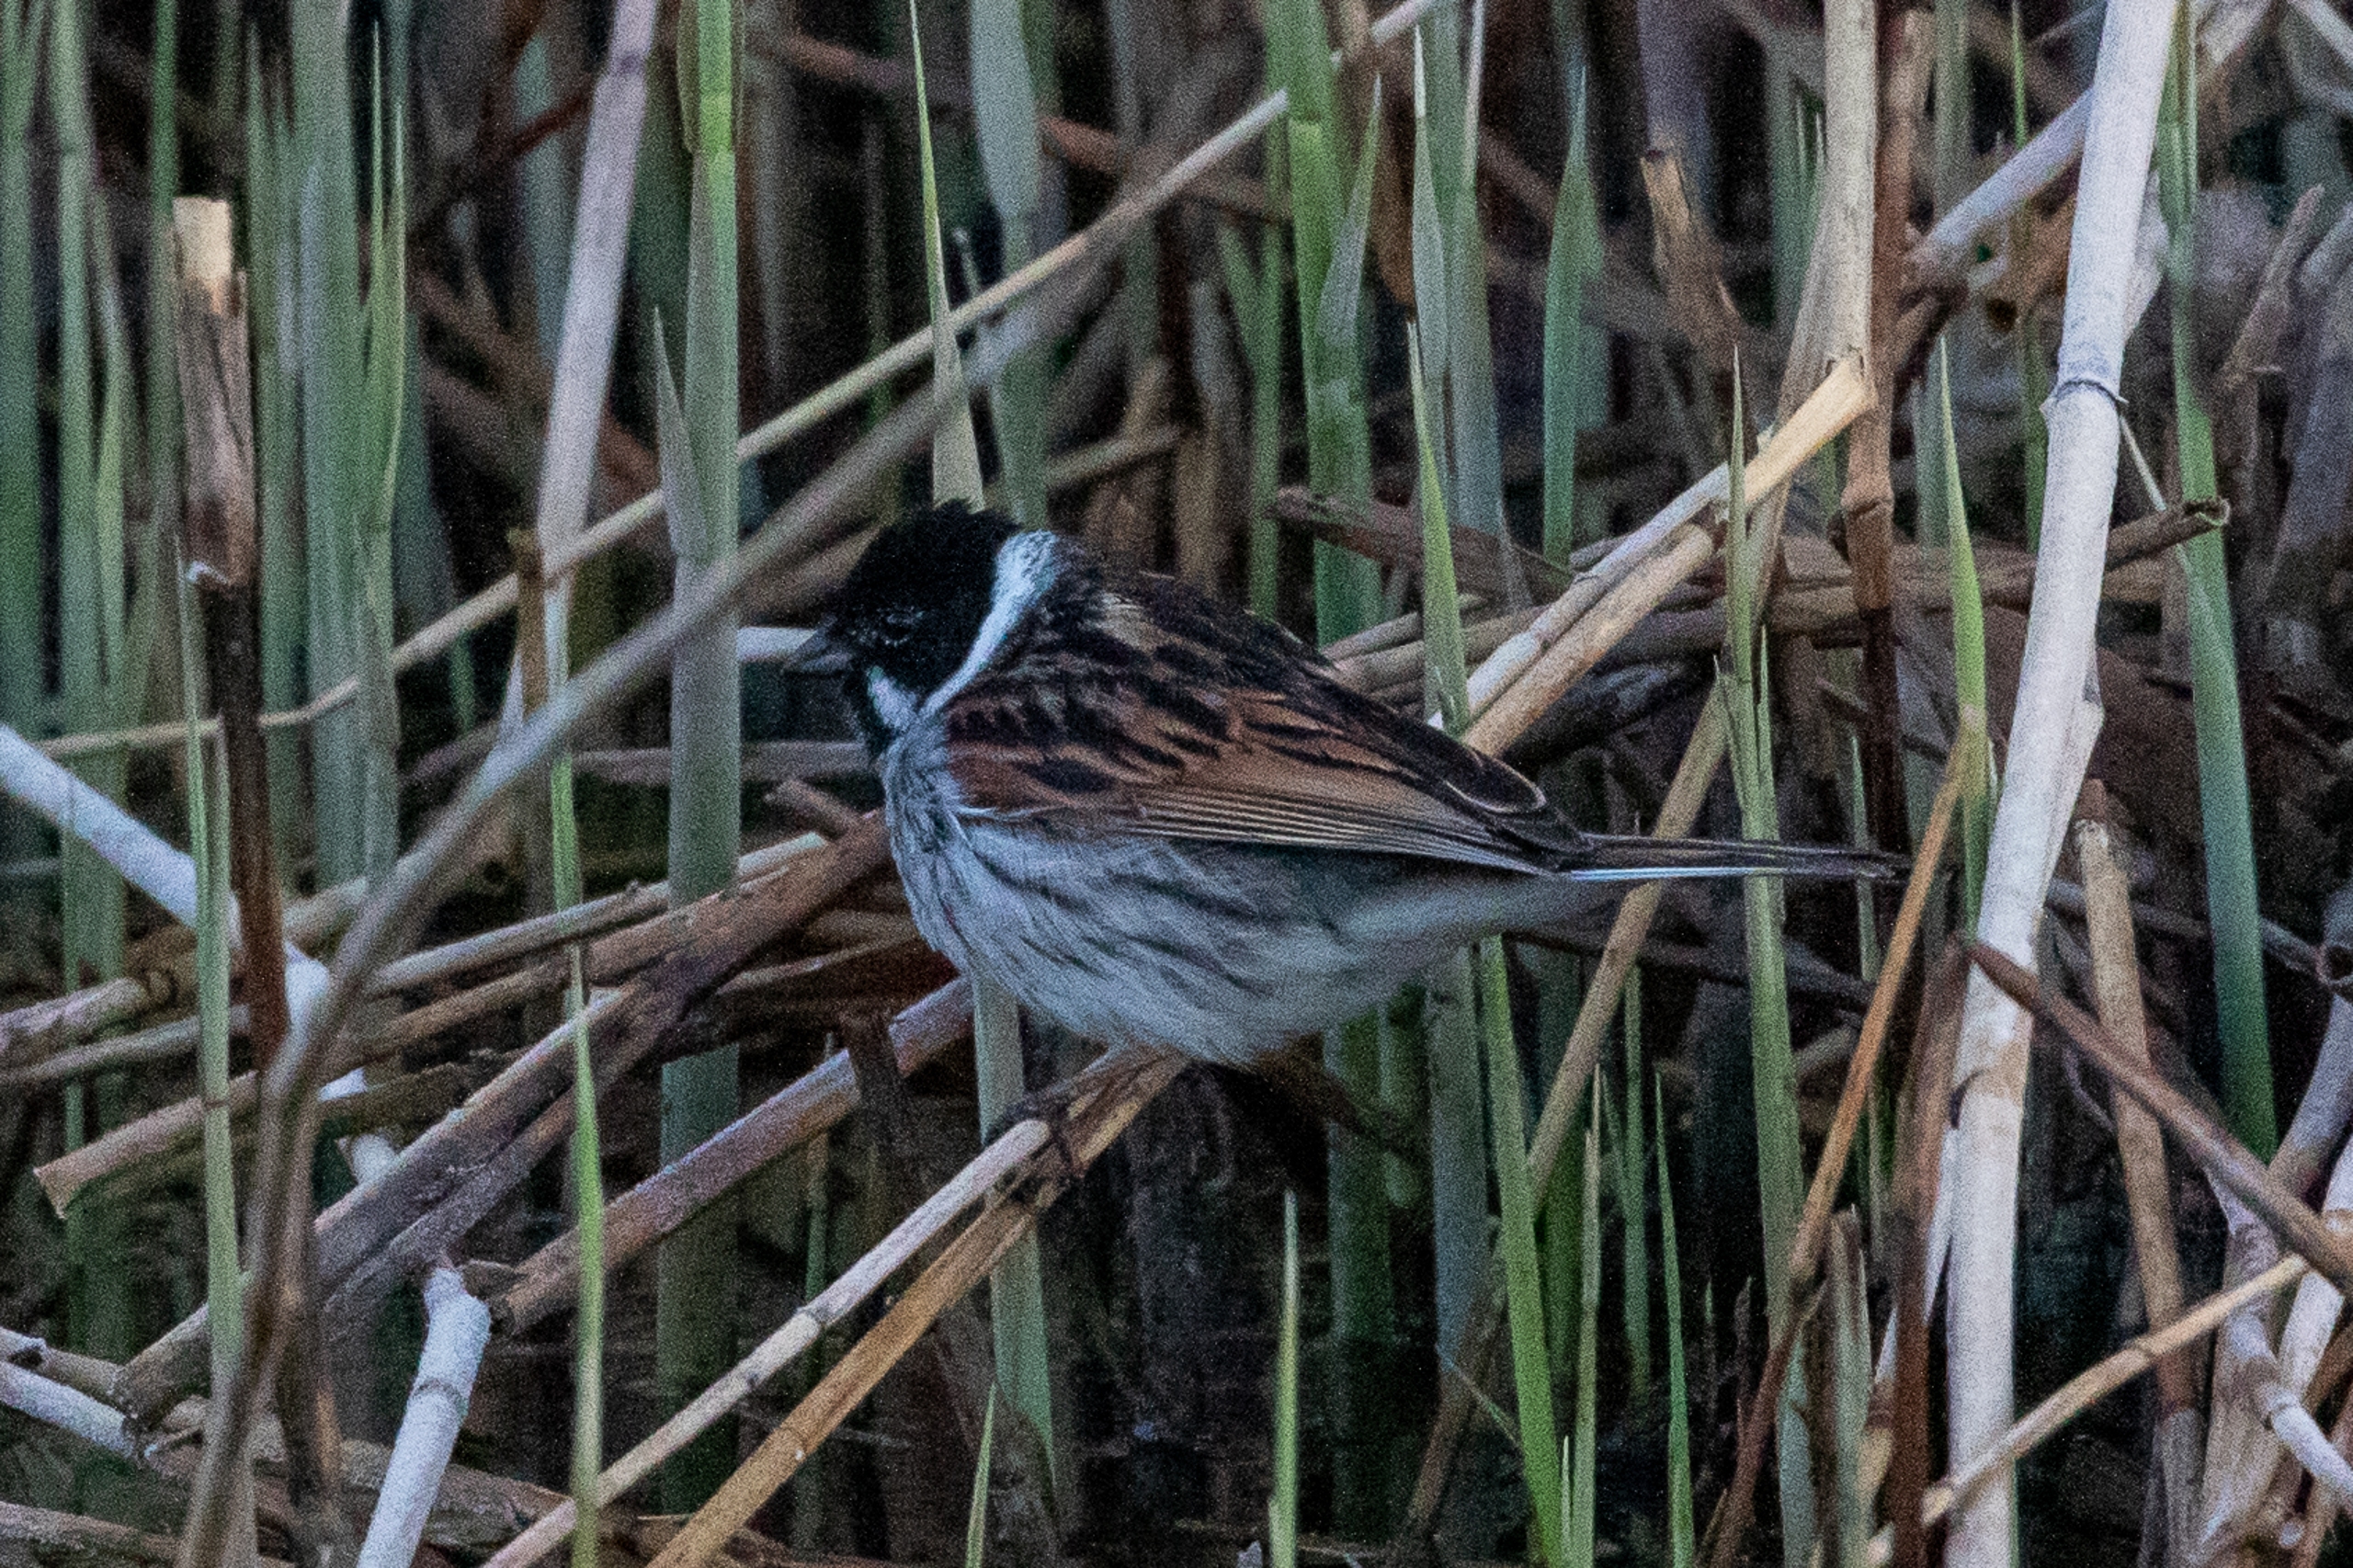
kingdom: Animalia
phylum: Chordata
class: Aves
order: Passeriformes
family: Emberizidae
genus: Emberiza
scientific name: Emberiza schoeniclus
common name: Rørspurv
